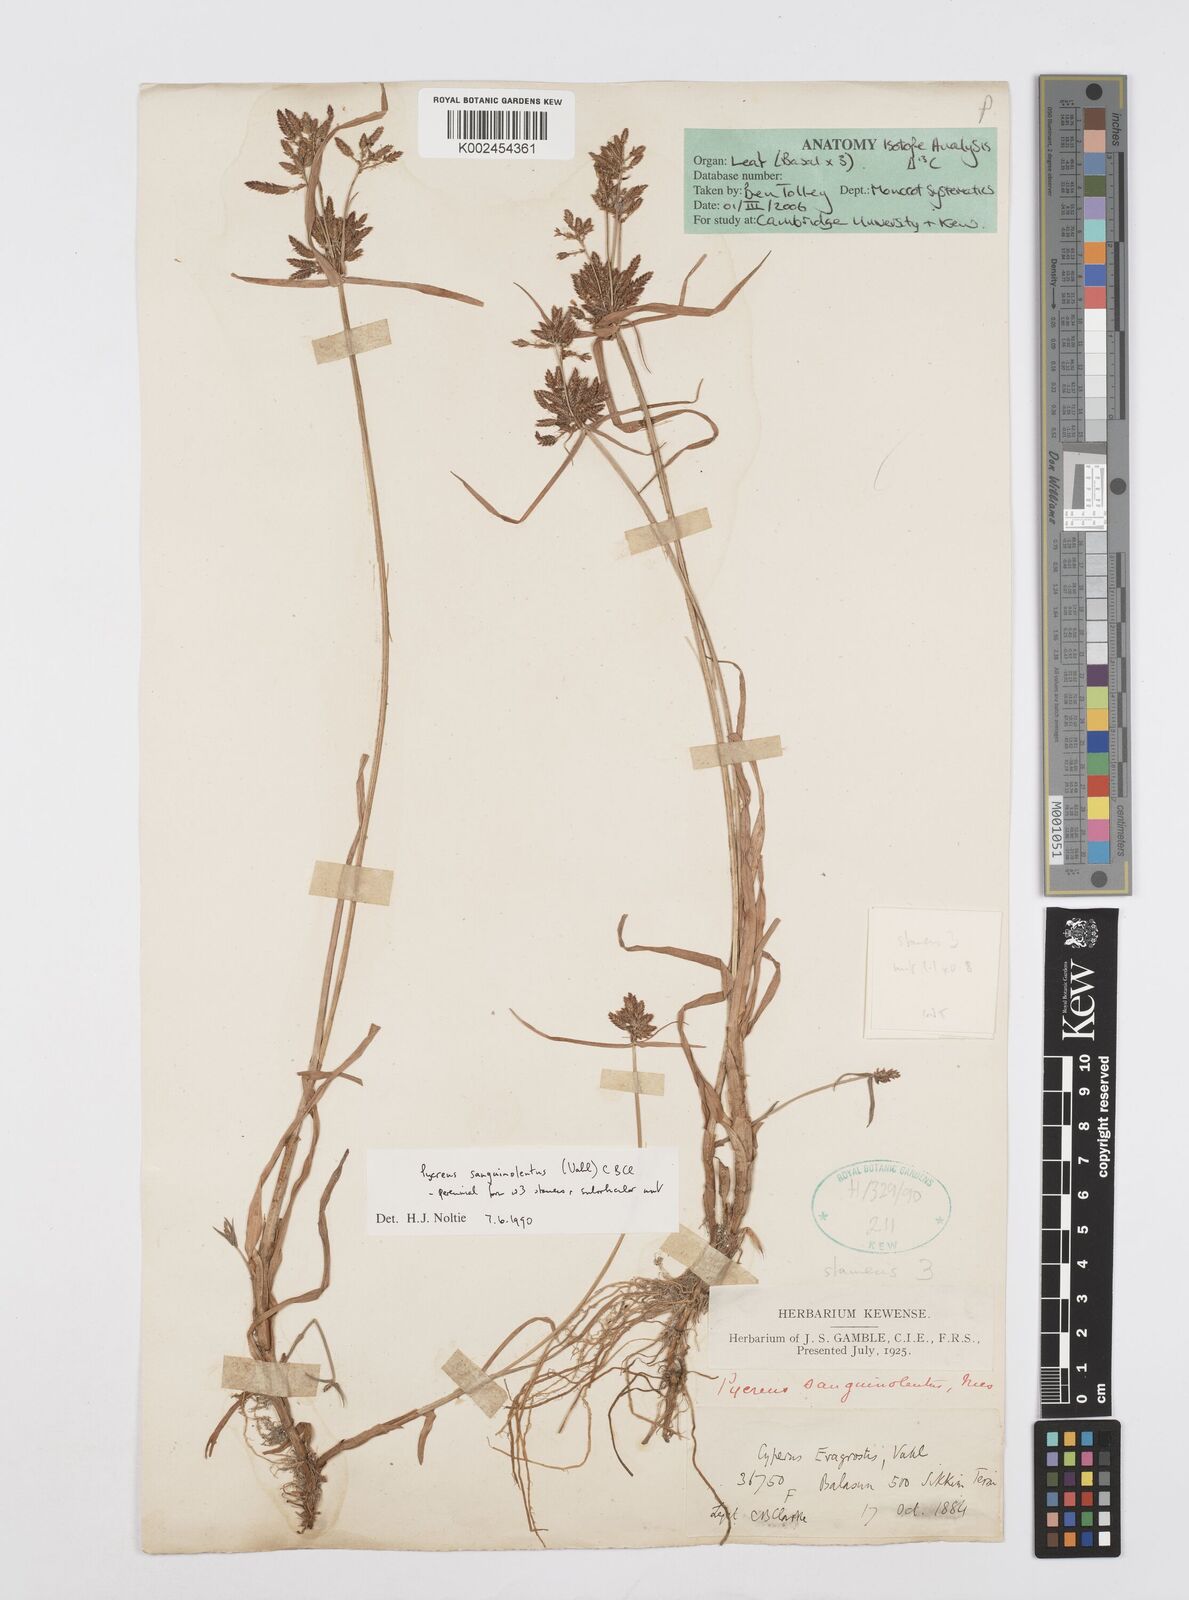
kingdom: Plantae
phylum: Tracheophyta
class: Liliopsida
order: Poales
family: Cyperaceae
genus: Cyperus
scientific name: Cyperus sanguinolentus
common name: Purpleglume flatsedge
